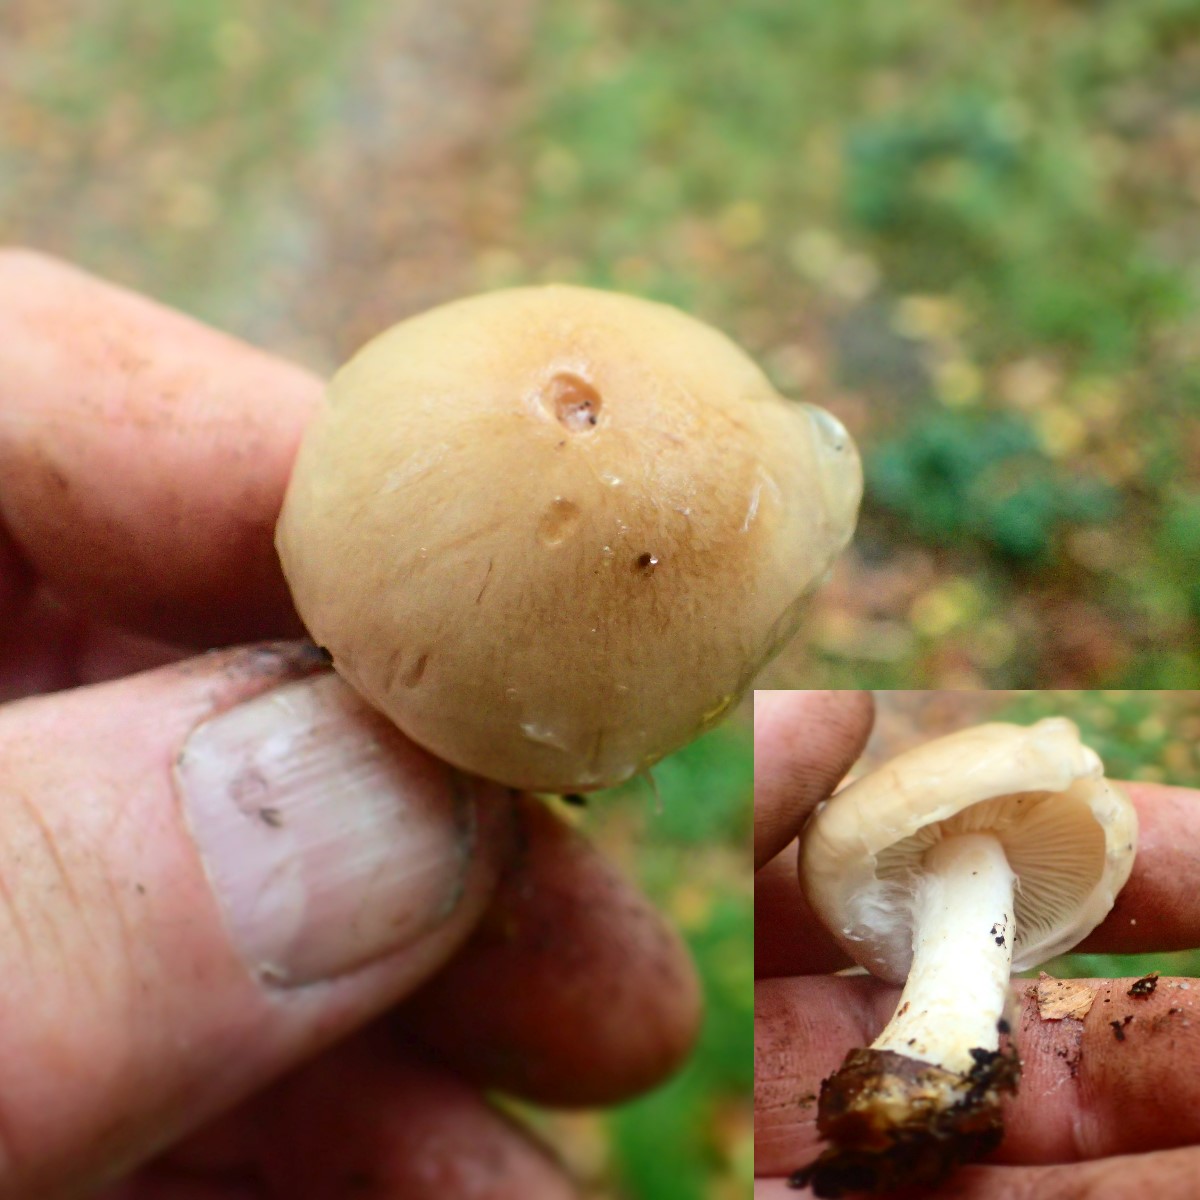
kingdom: Fungi
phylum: Basidiomycota
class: Agaricomycetes
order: Agaricales
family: Strophariaceae
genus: Pholiota
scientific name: Pholiota lenta
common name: løv-skælhat
